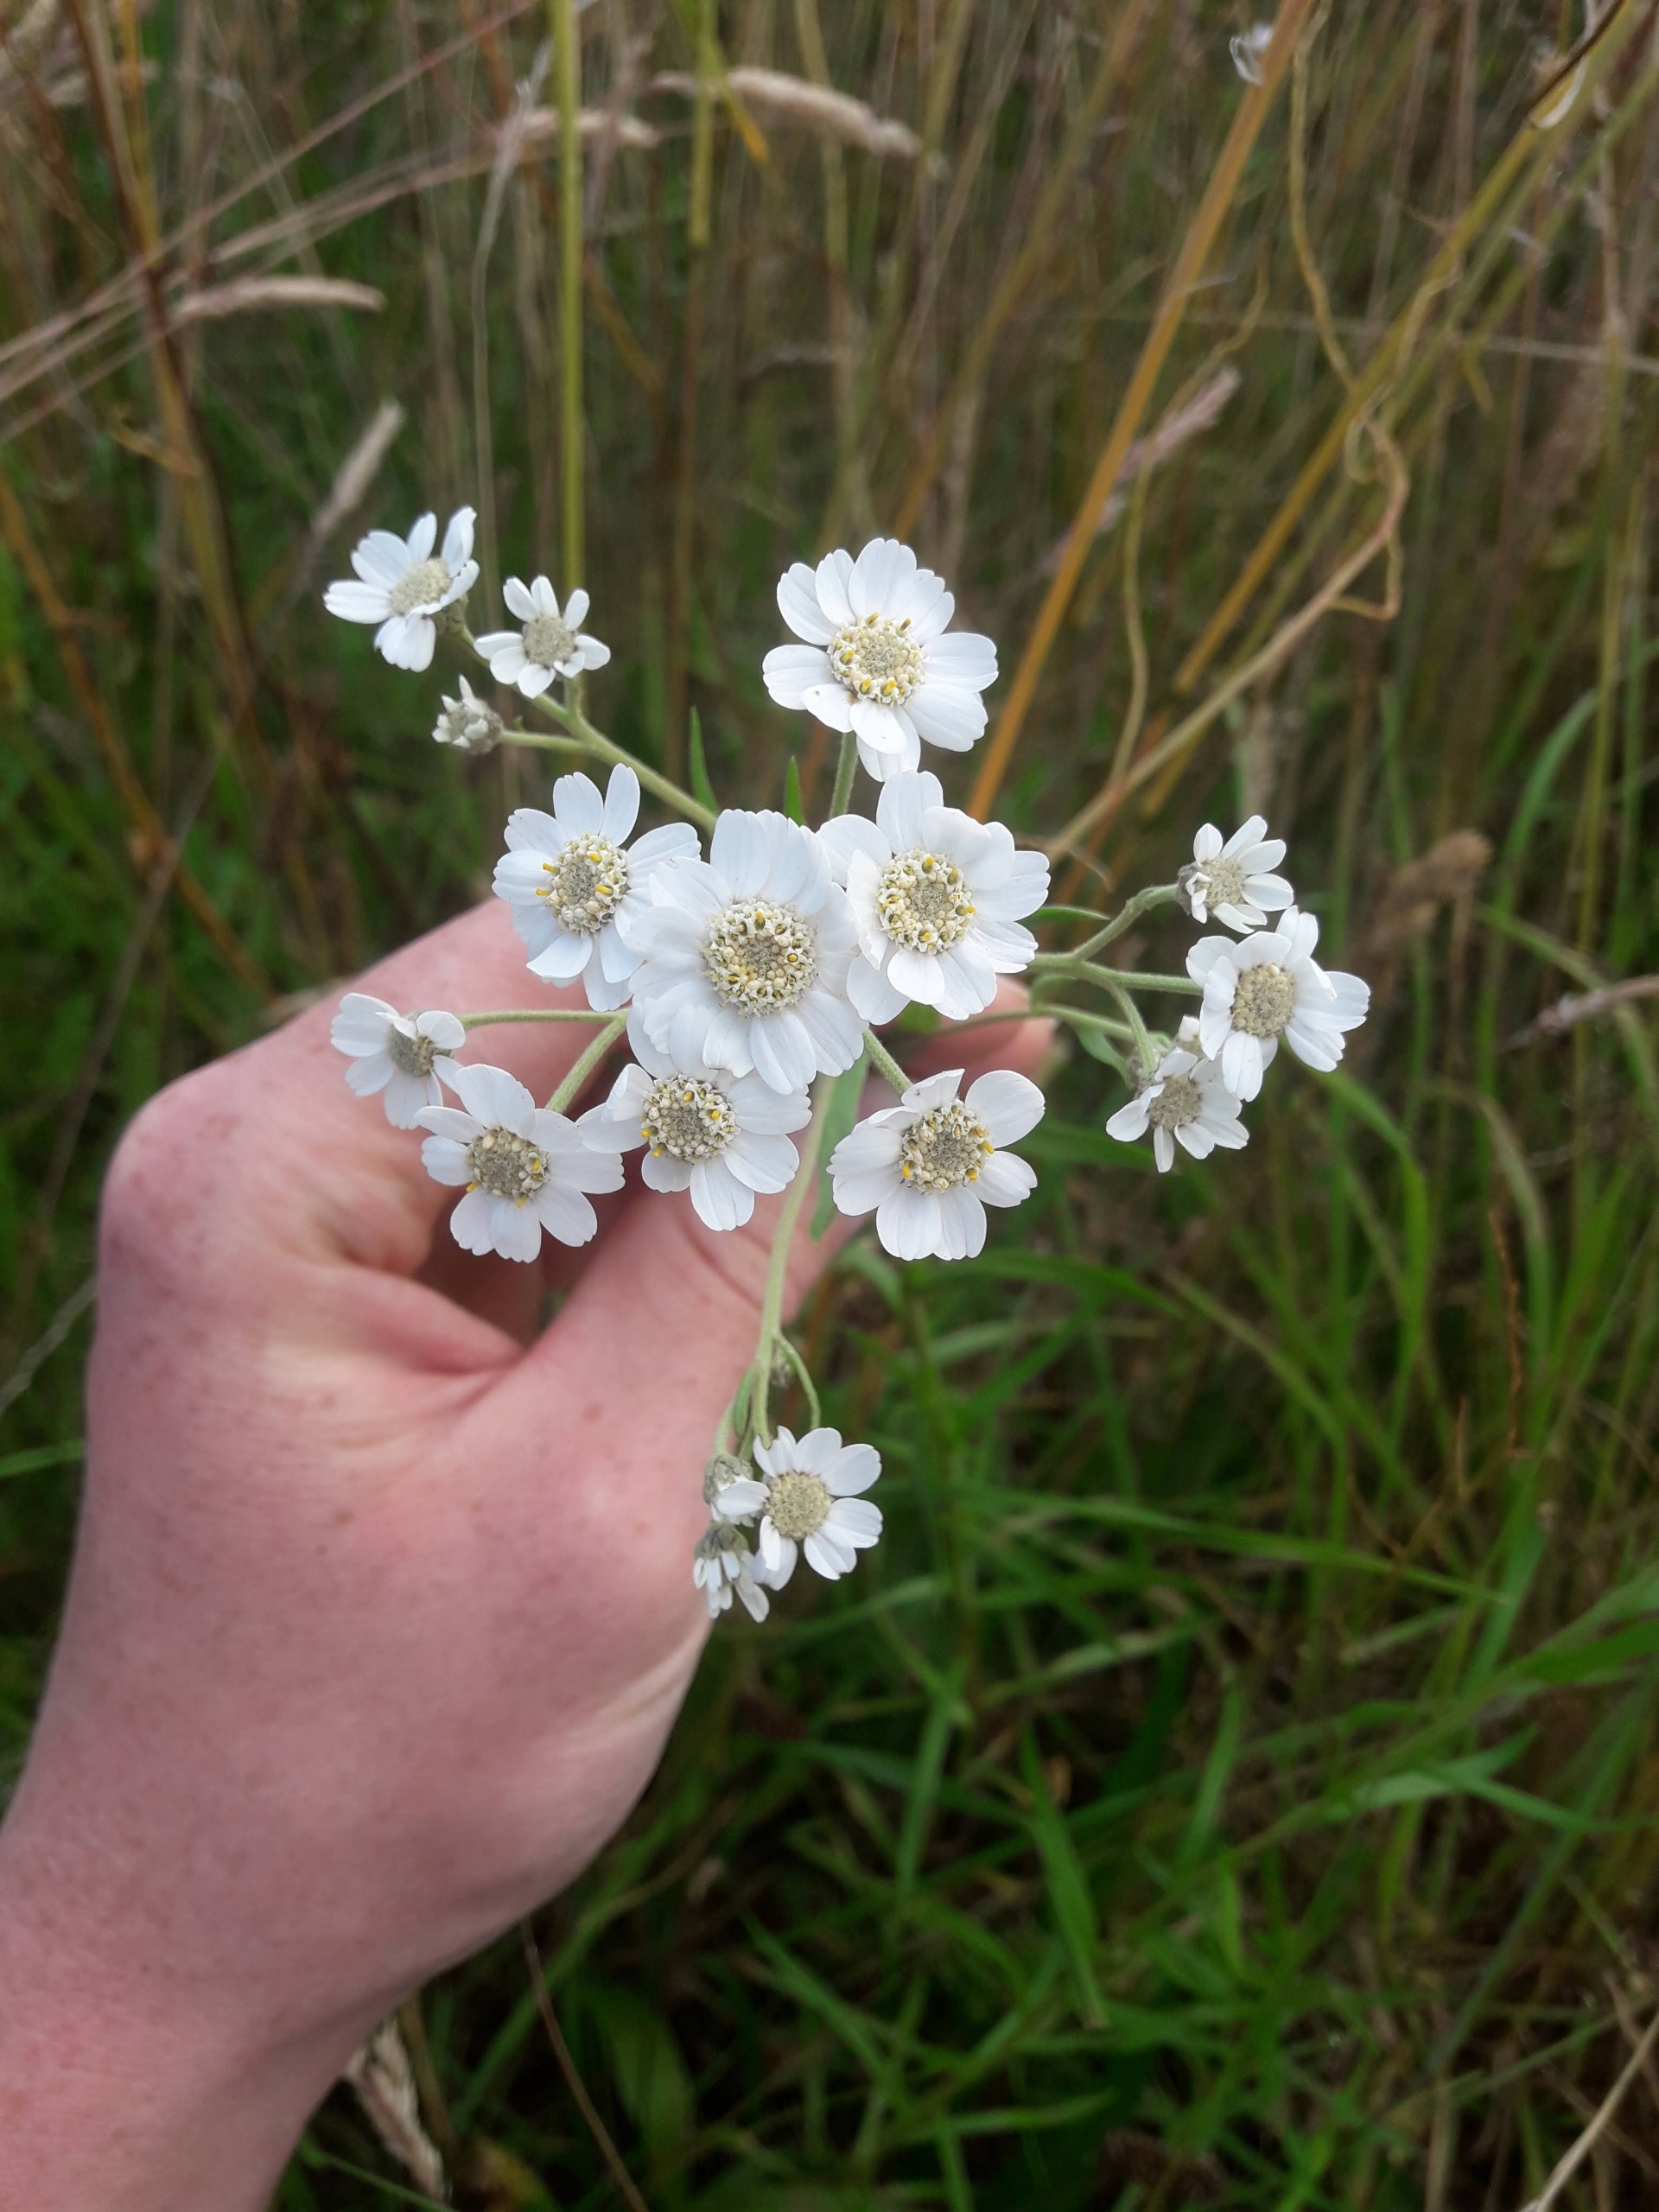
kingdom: Plantae
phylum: Tracheophyta
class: Magnoliopsida
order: Asterales
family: Asteraceae
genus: Achillea
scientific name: Achillea ptarmica
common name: Nyse-røllike
